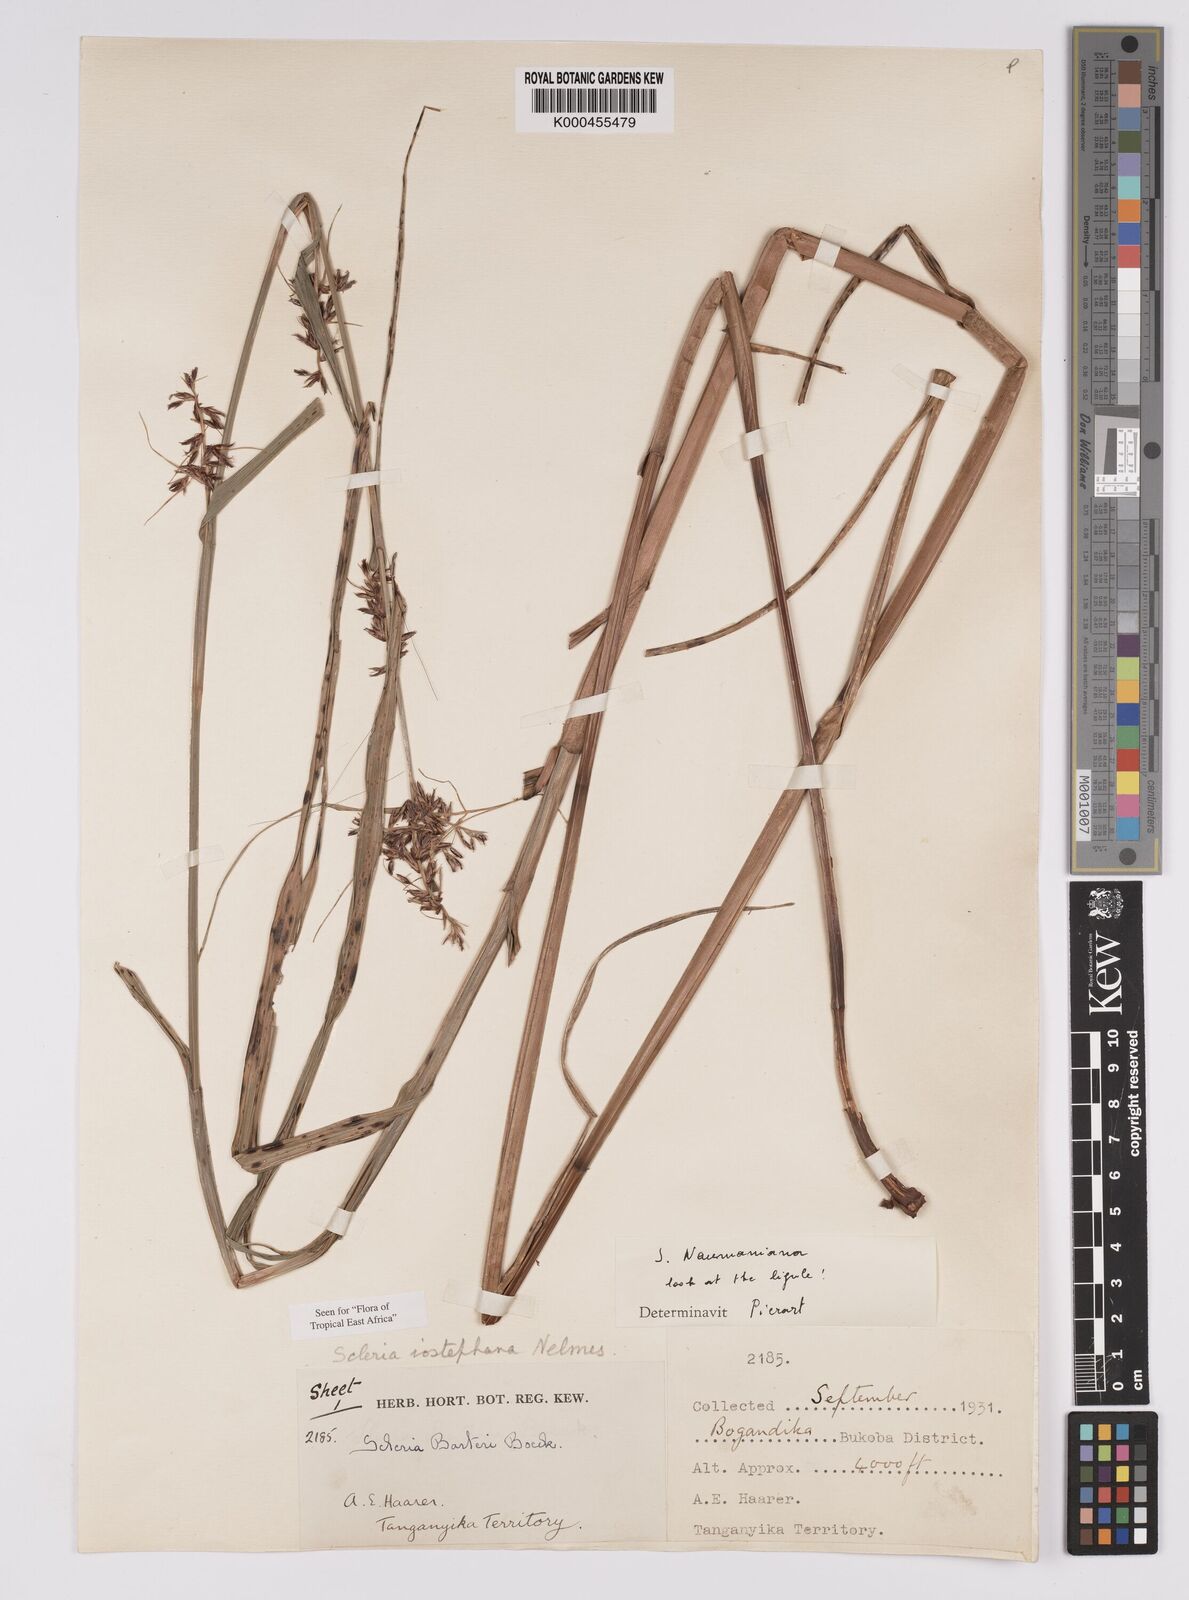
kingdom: Plantae
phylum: Tracheophyta
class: Liliopsida
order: Poales
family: Cyperaceae
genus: Scleria
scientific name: Scleria iostephana
